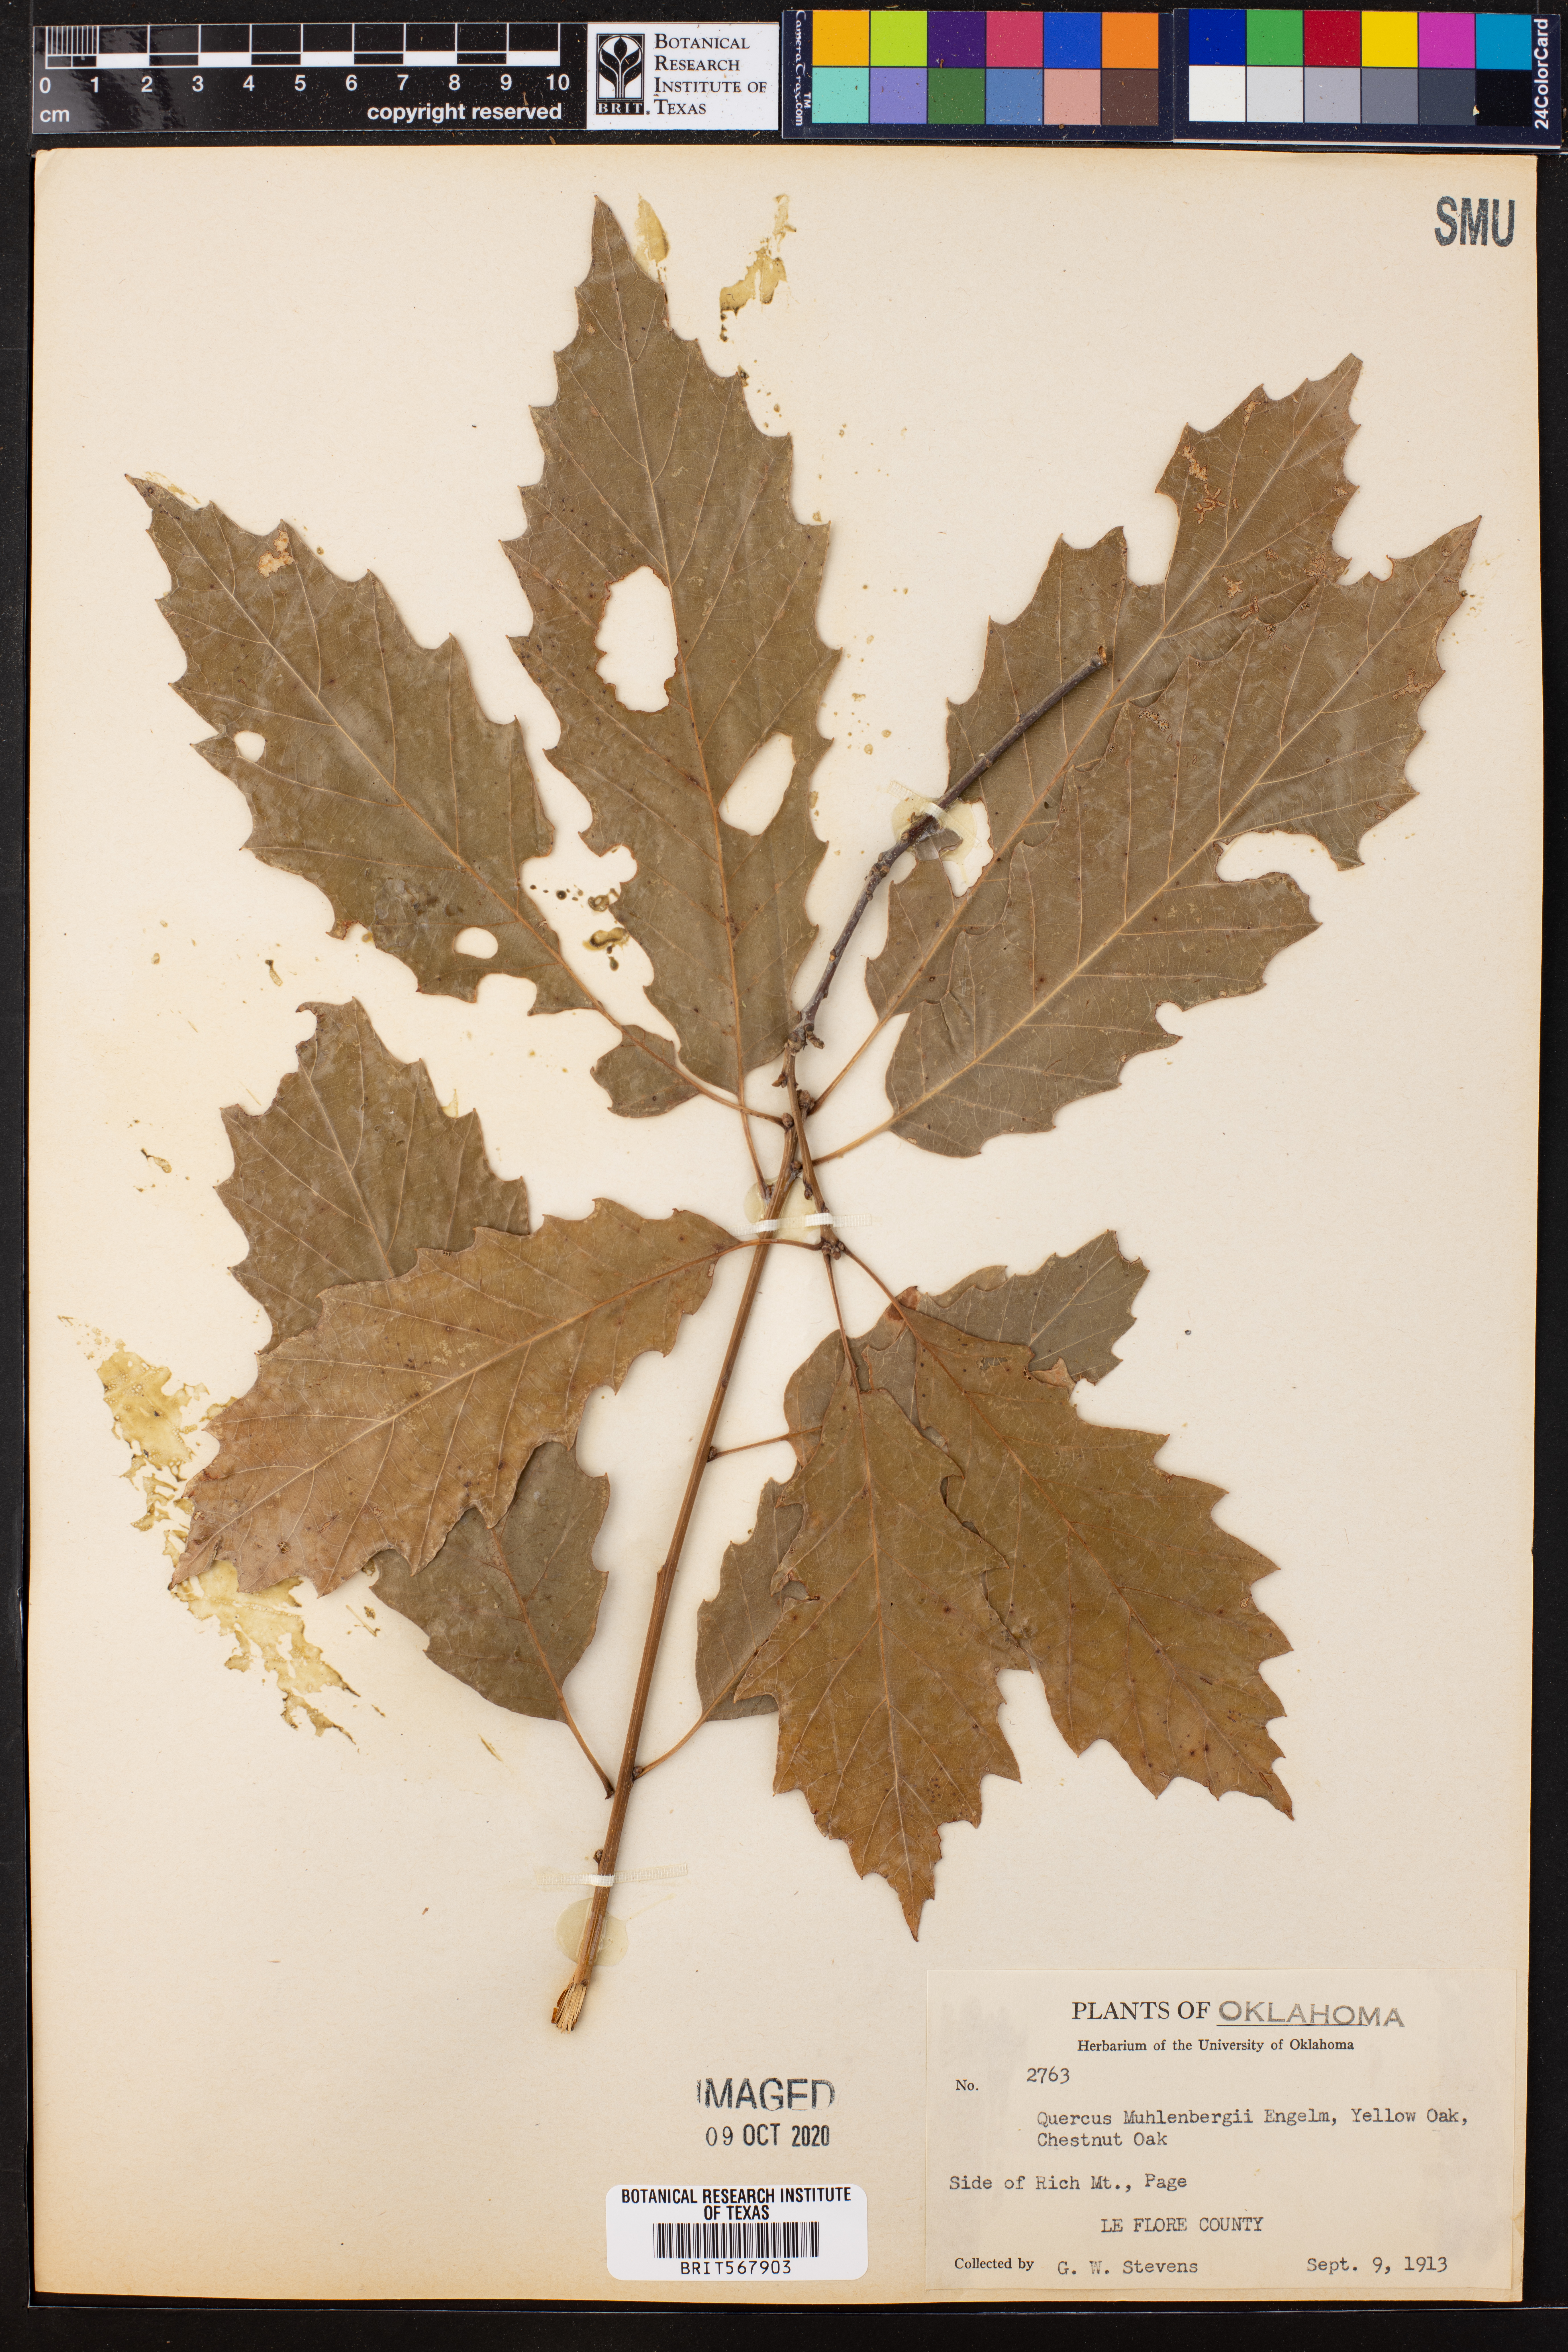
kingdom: Plantae
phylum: Tracheophyta
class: Magnoliopsida
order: Fagales
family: Fagaceae
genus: Quercus
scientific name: Quercus muehlenbergii
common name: Chinkapin oak
